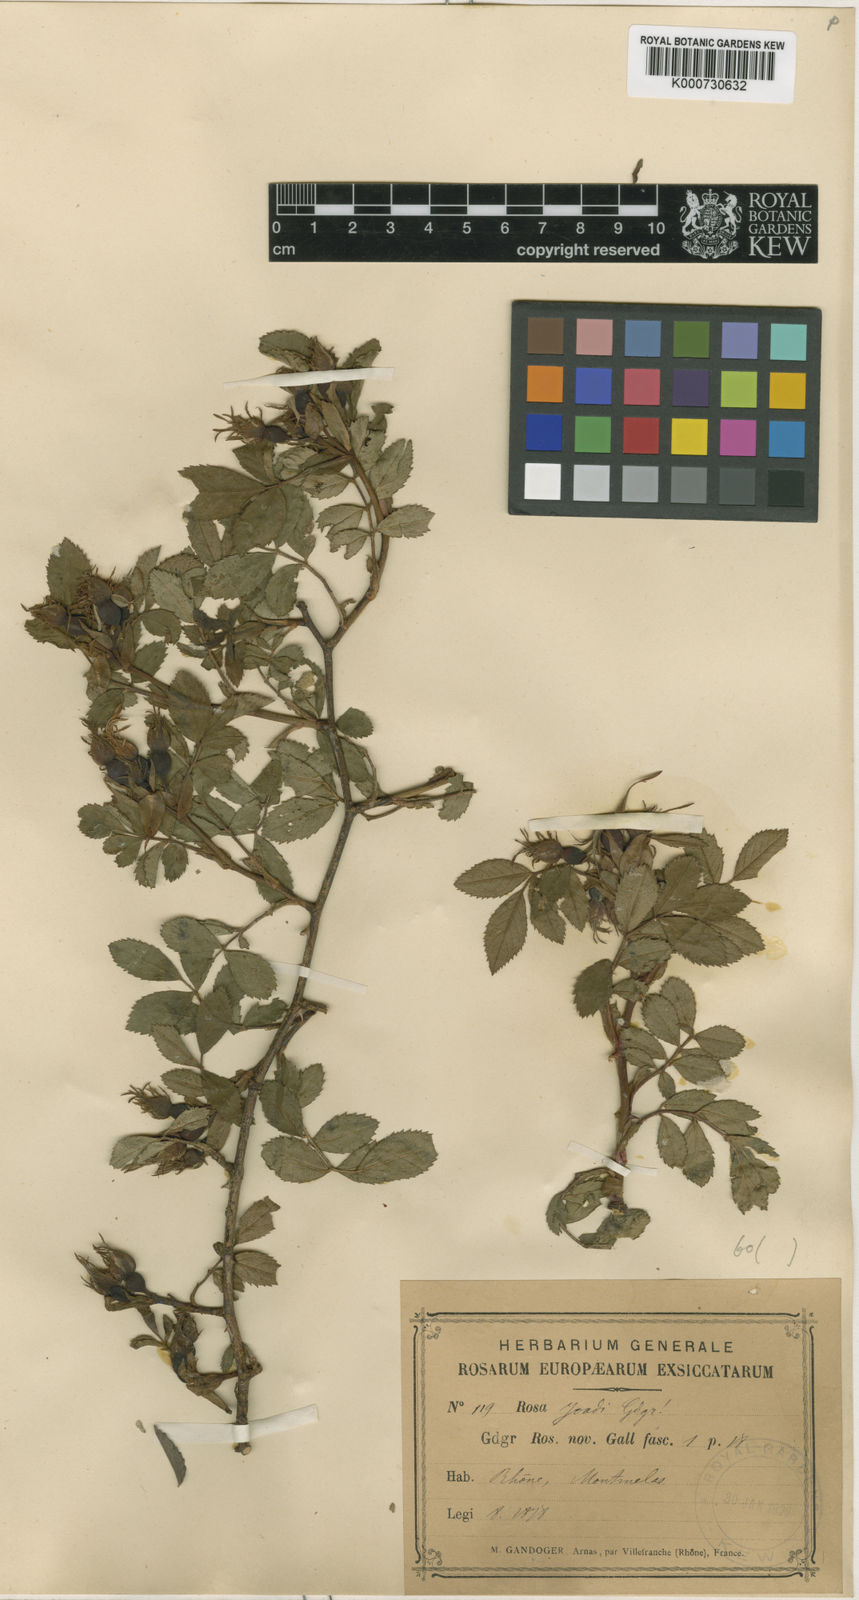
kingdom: Plantae
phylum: Tracheophyta
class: Magnoliopsida
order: Rosales
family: Rosaceae
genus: Rosa
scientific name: Rosa agrestis
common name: Fieldbriar
